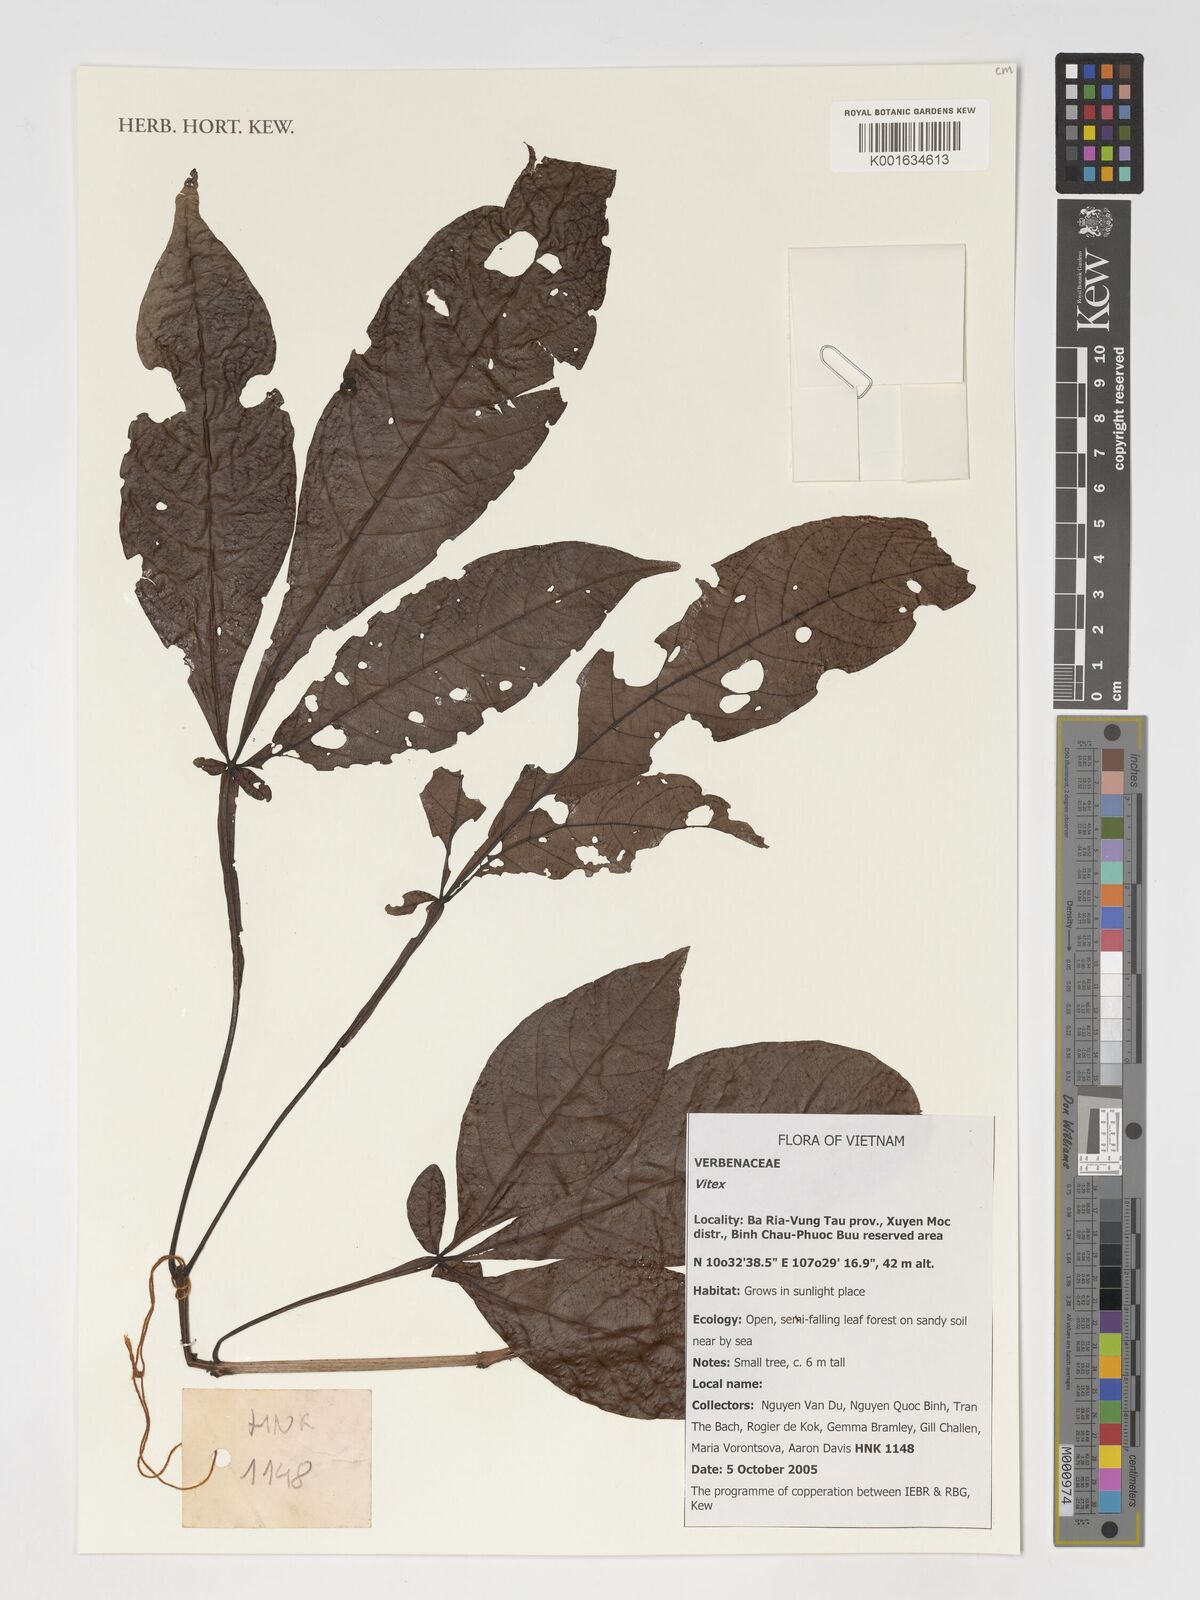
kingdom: Plantae
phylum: Tracheophyta
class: Magnoliopsida
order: Lamiales
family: Lamiaceae
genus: Vitex
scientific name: Vitex
